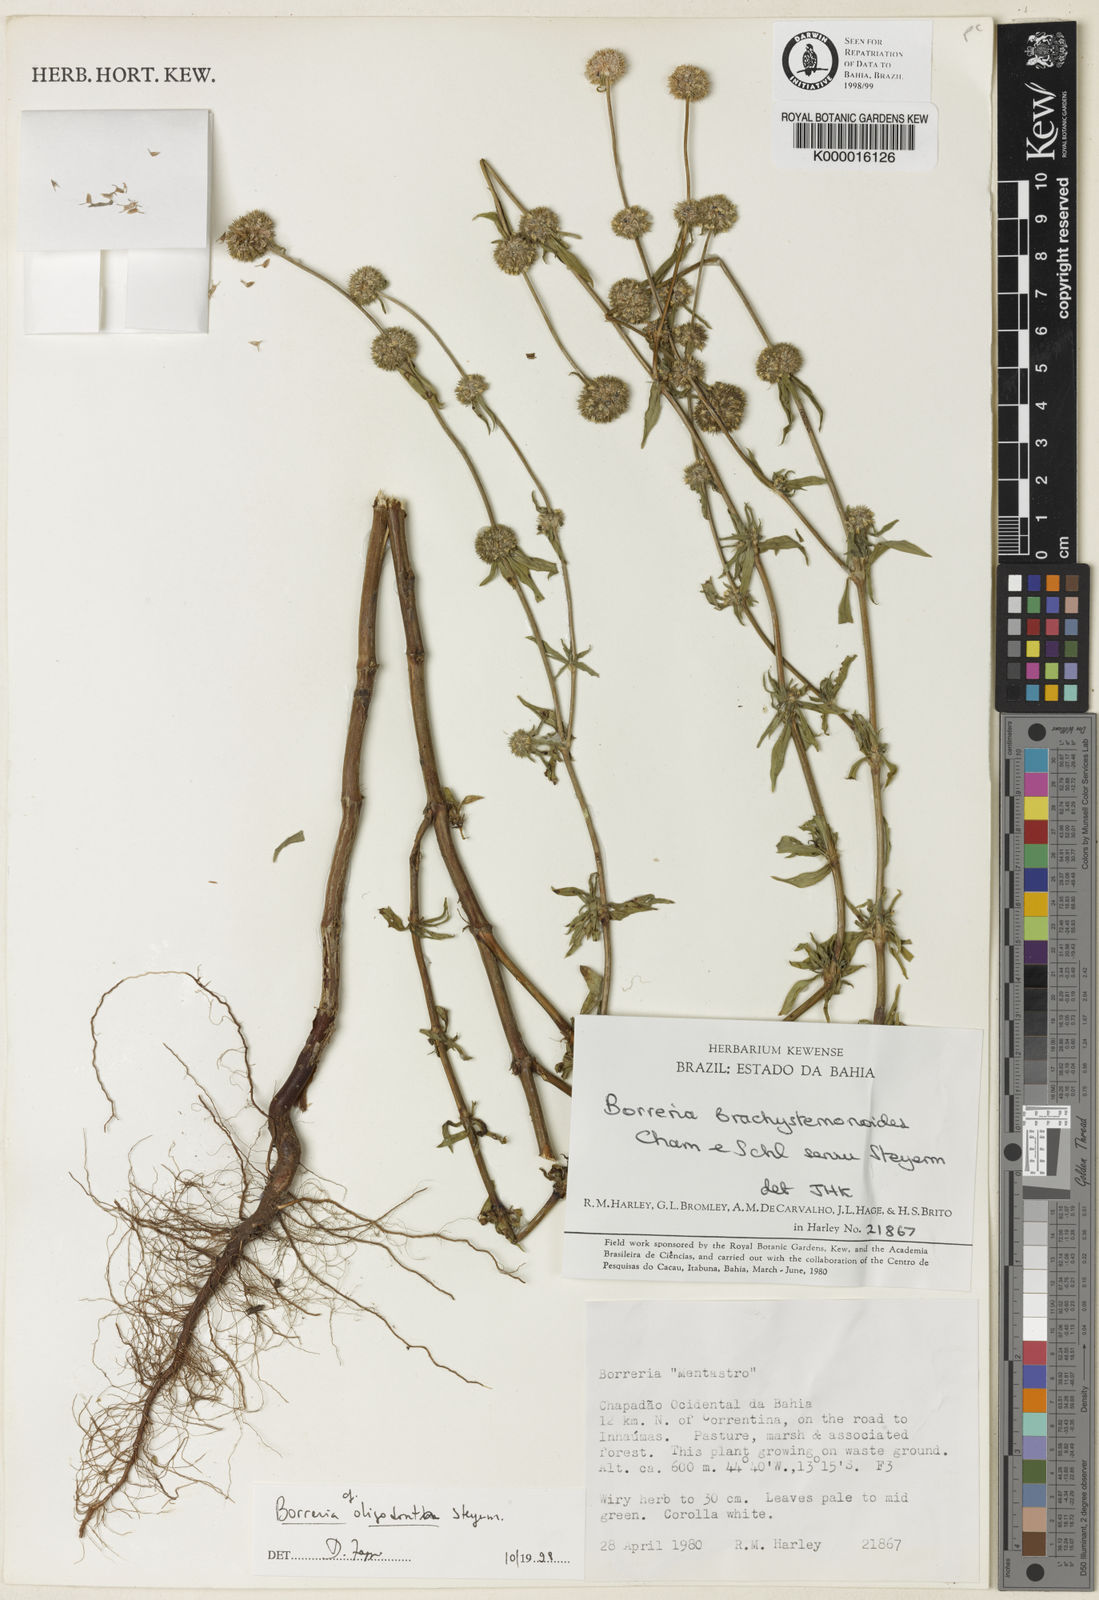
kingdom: Plantae
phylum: Tracheophyta
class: Magnoliopsida
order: Gentianales
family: Rubiaceae
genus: Spermacoce
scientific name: Spermacoce verticillata
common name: Shrubby false buttonweed
